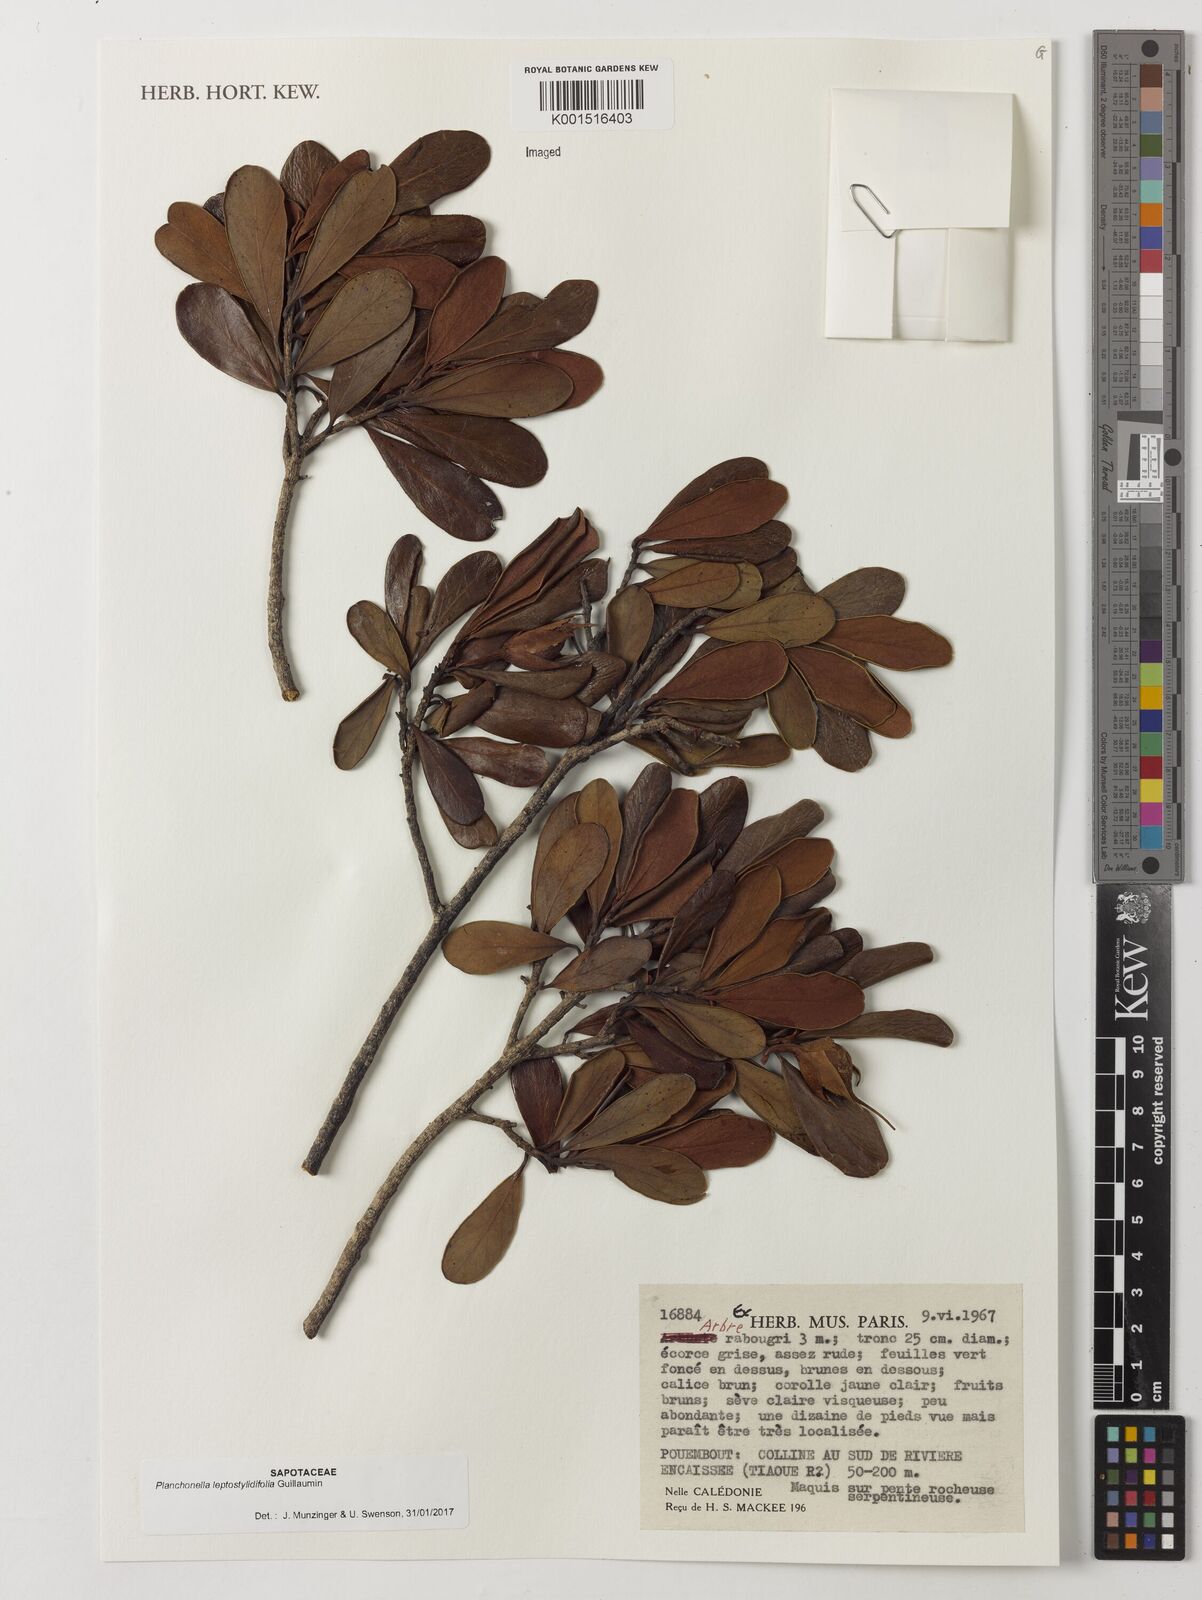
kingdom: Plantae
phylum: Tracheophyta
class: Magnoliopsida
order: Ericales
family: Sapotaceae
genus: Planchonella
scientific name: Planchonella leptostylidifolia
